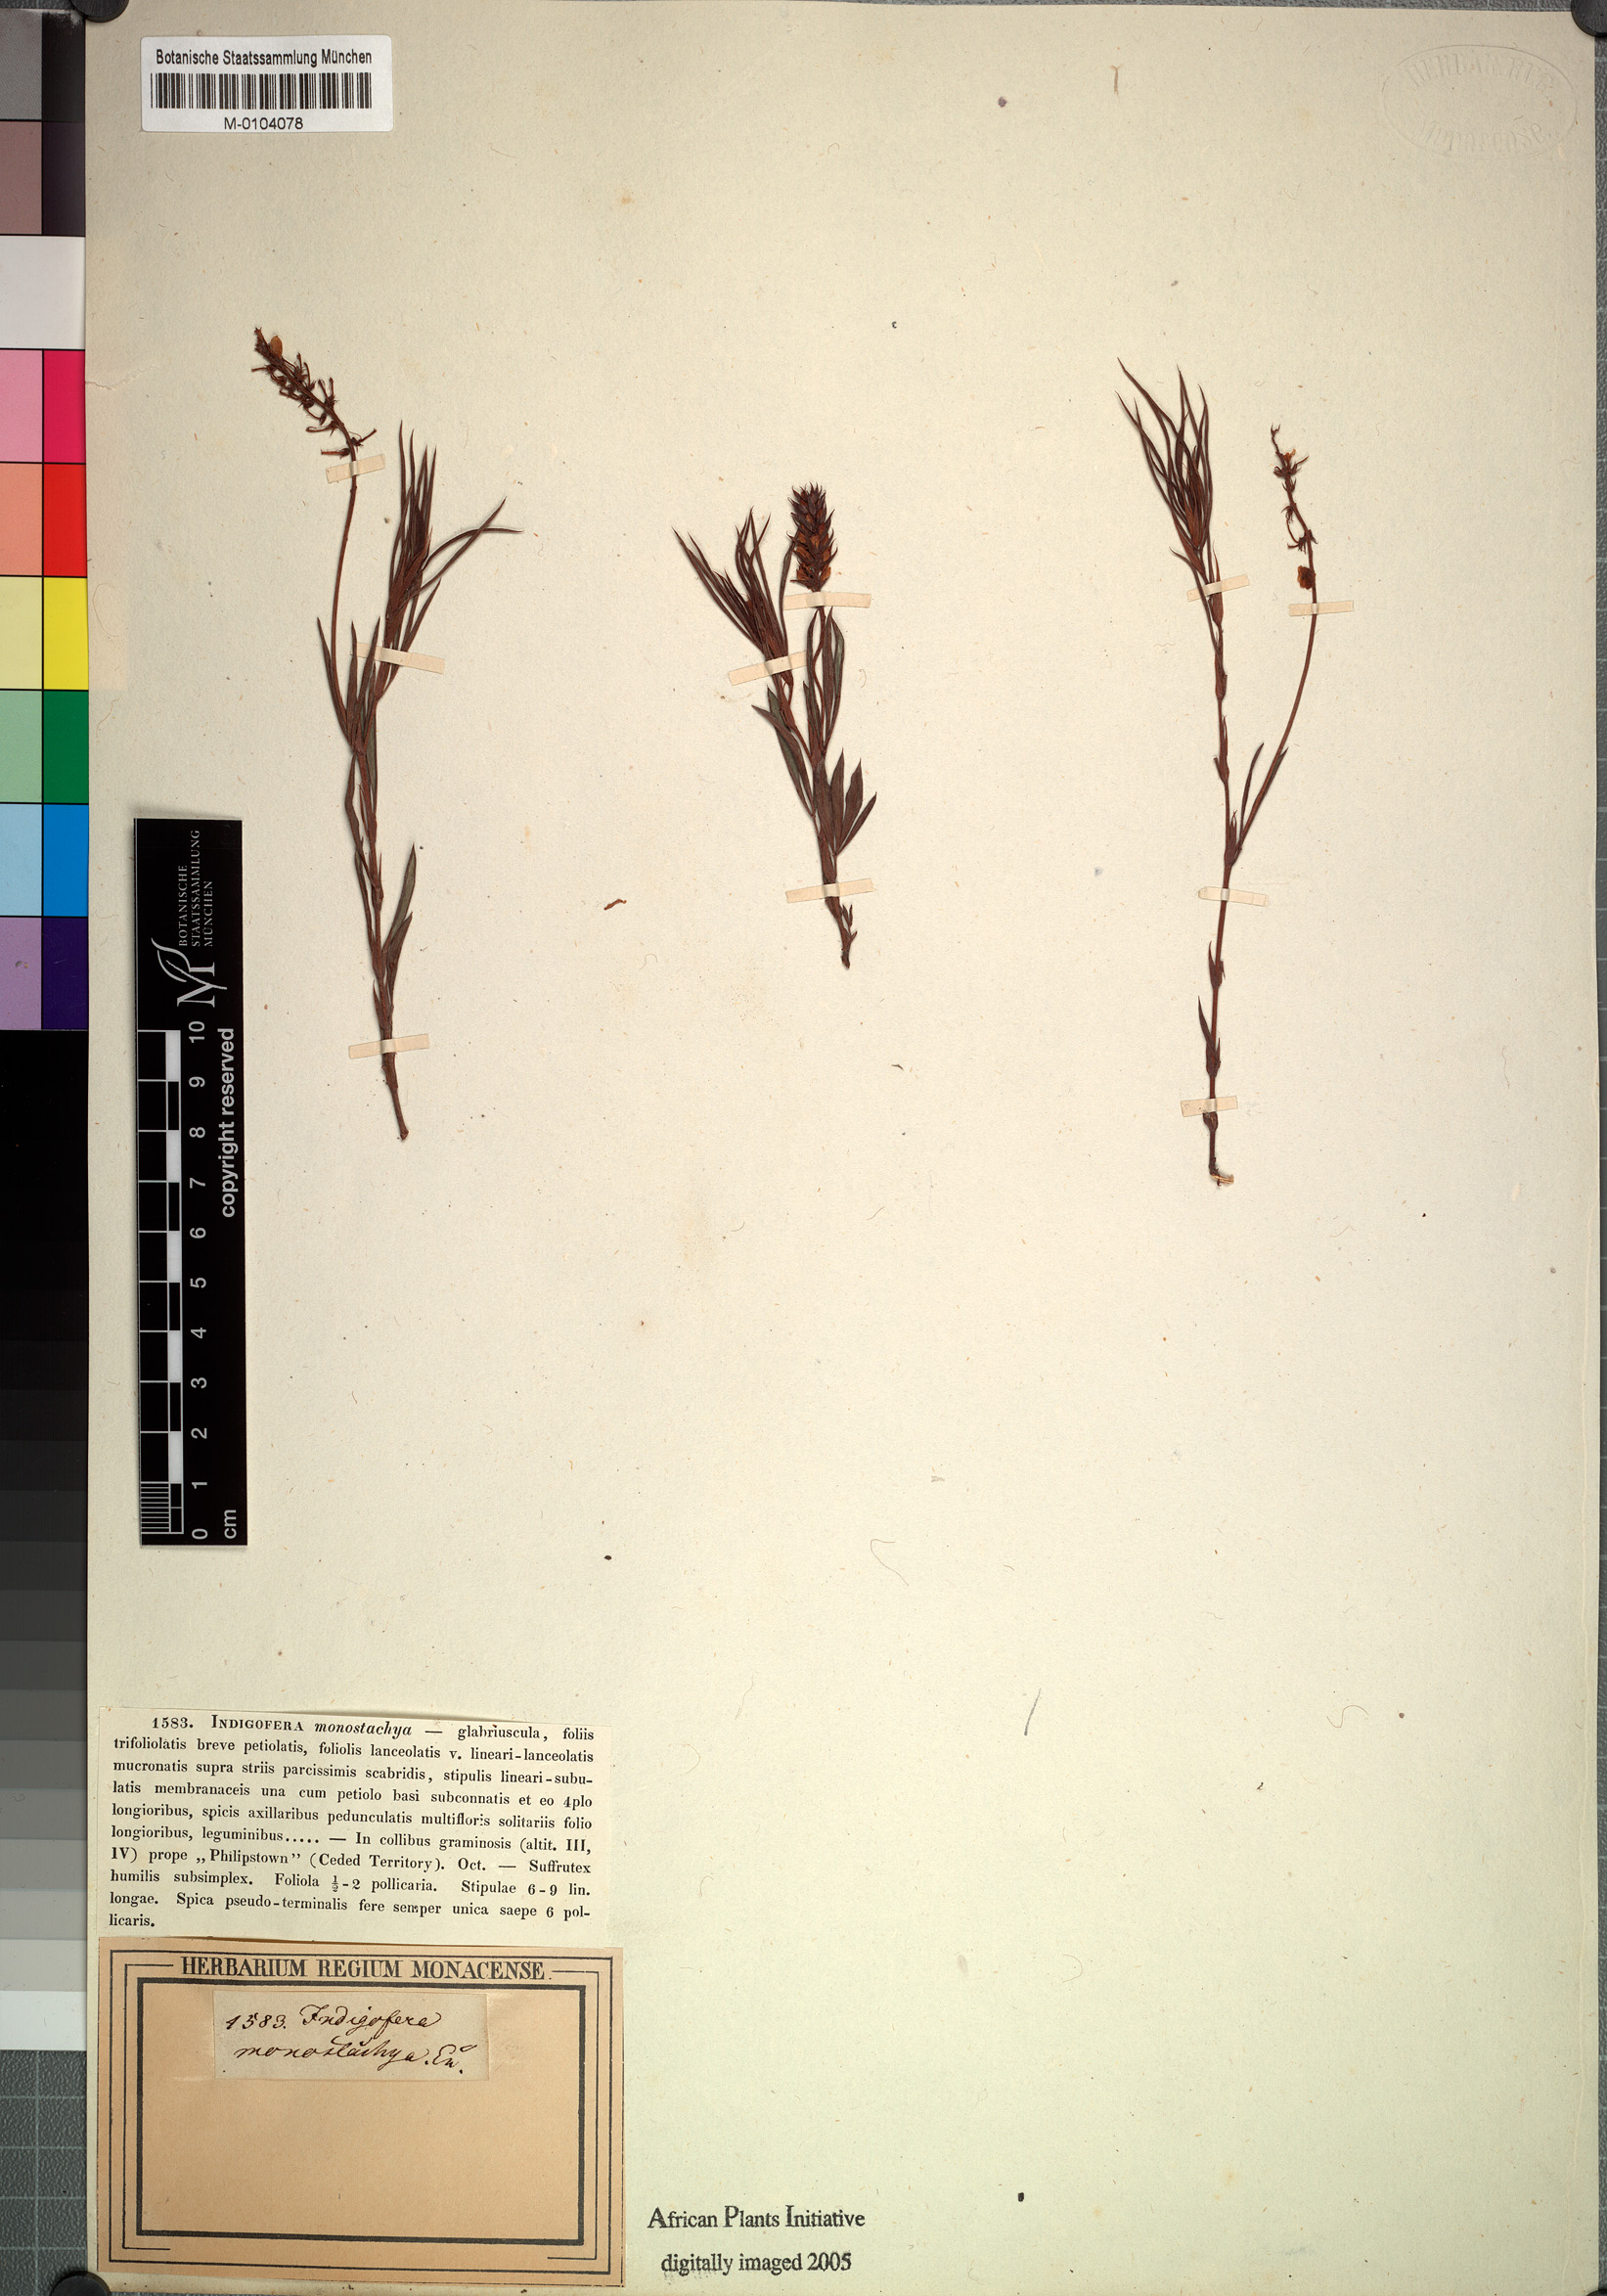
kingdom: Plantae
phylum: Tracheophyta
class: Magnoliopsida
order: Fabales
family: Fabaceae
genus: Indigofera
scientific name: Indigofera monostachya
